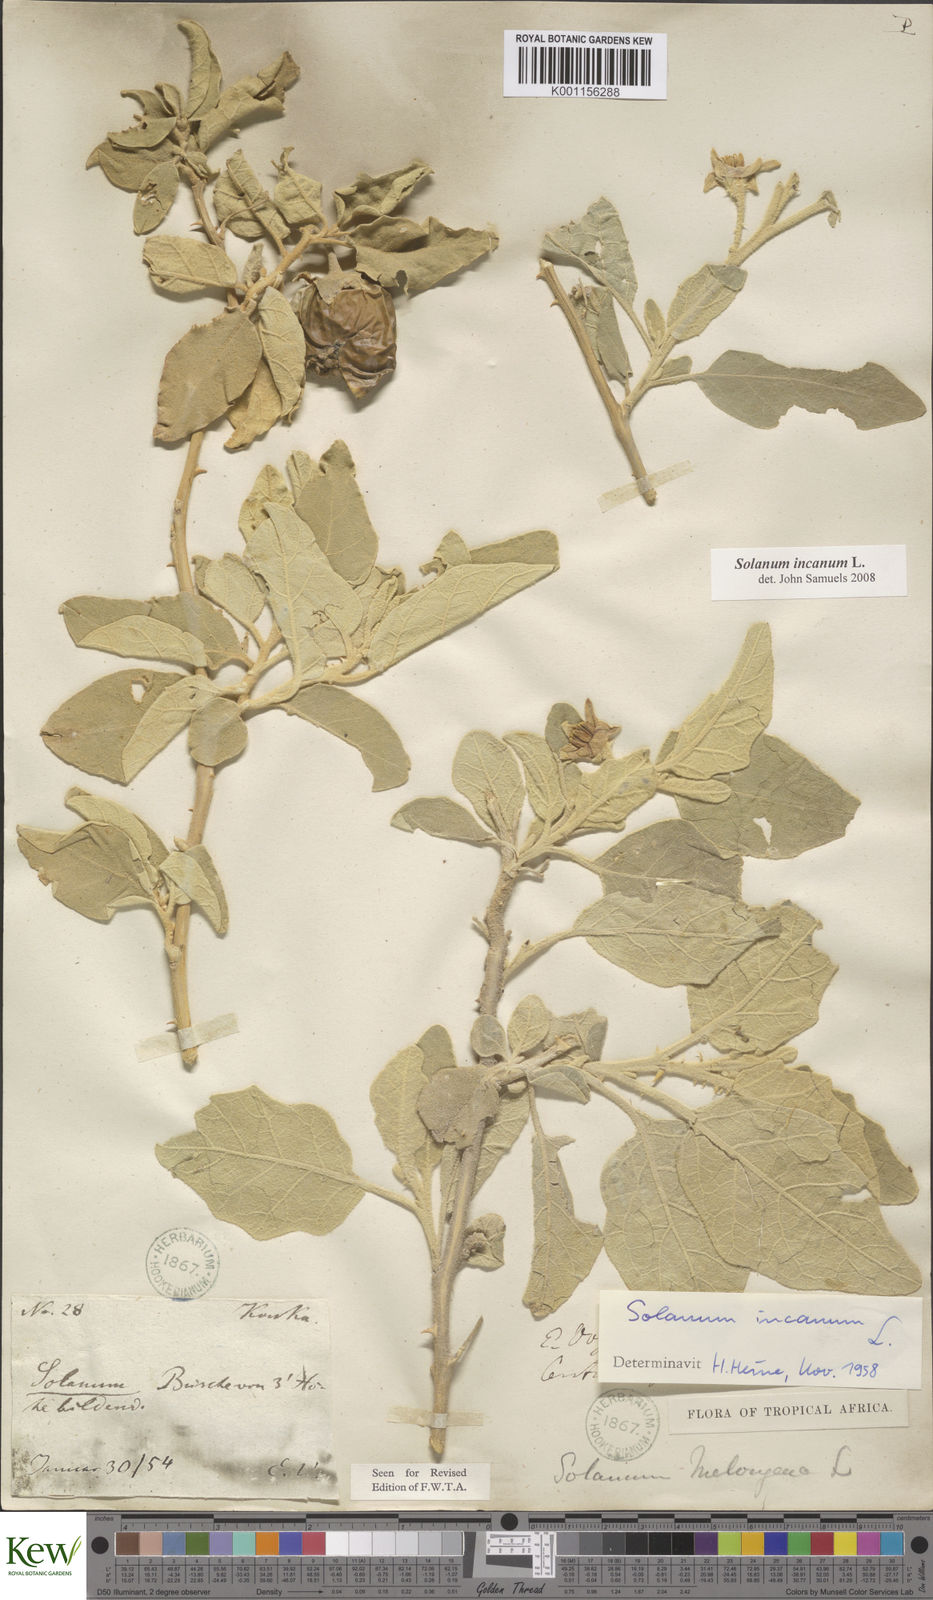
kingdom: Plantae
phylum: Tracheophyta
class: Magnoliopsida
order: Solanales
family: Solanaceae
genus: Solanum
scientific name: Solanum incanum
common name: Bitter apple
